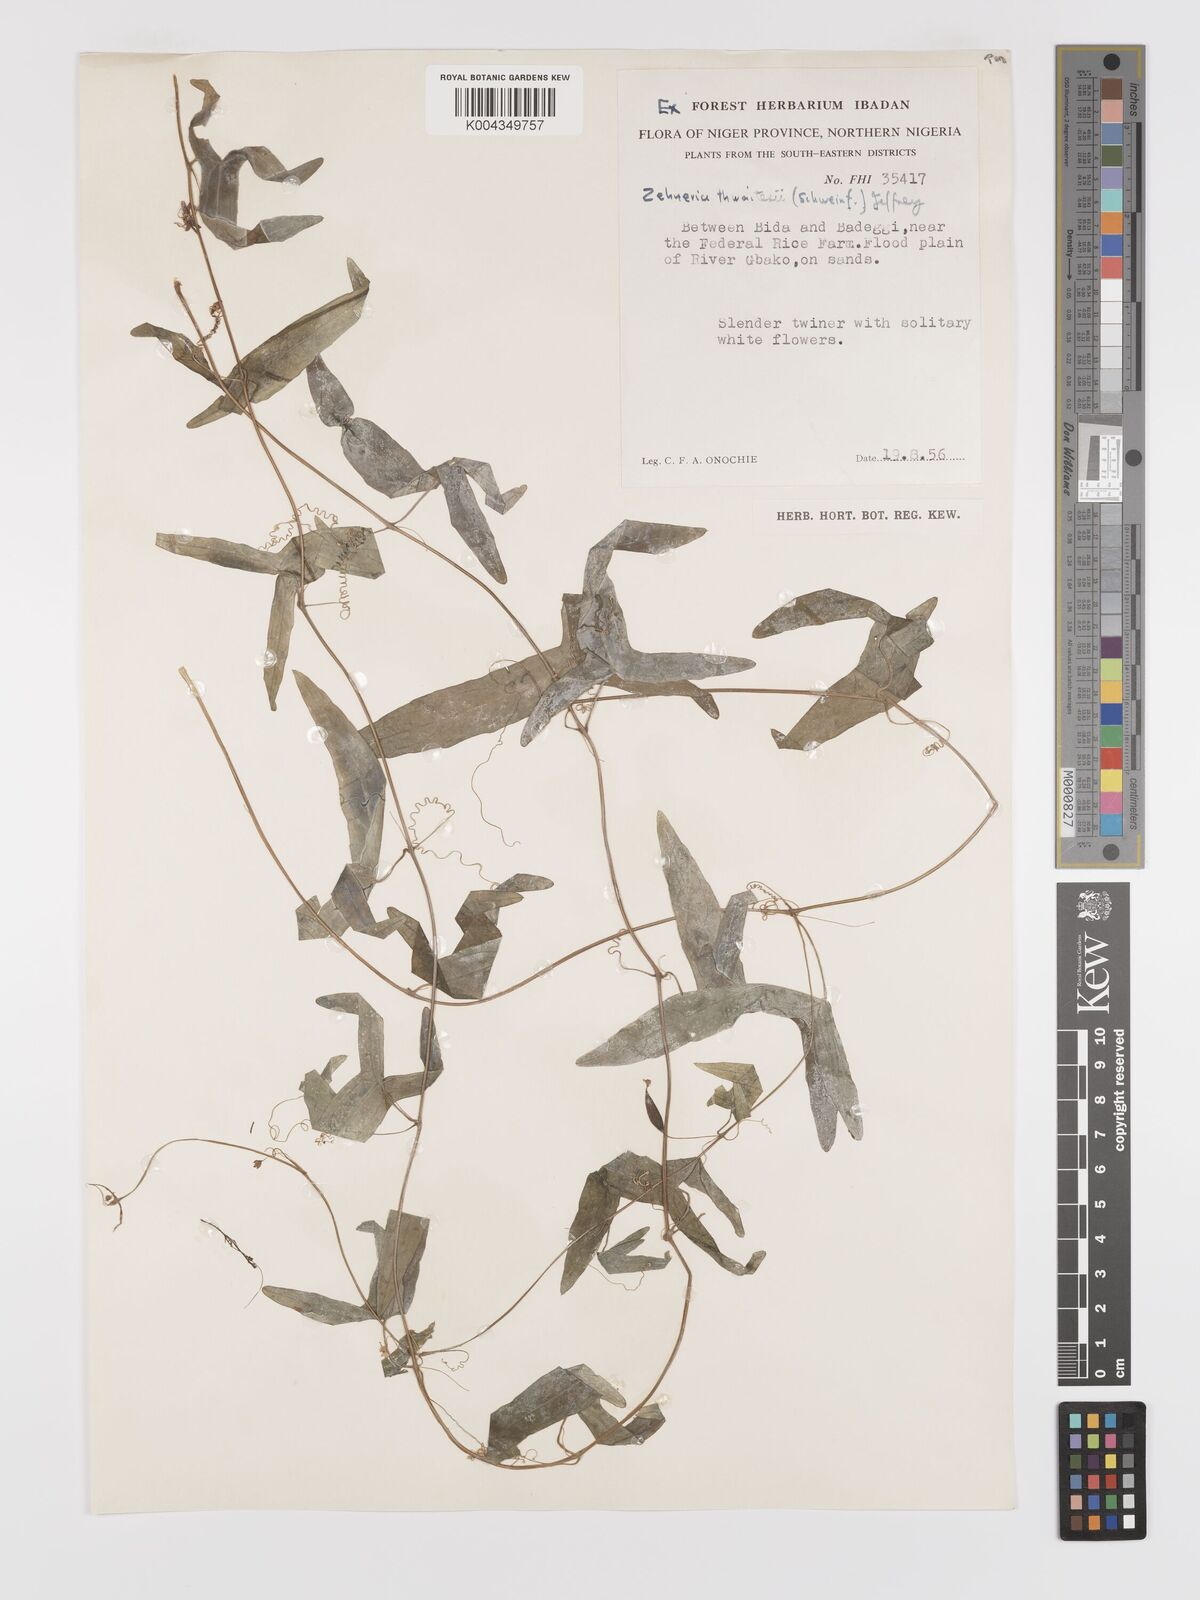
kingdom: Plantae
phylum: Tracheophyta
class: Magnoliopsida
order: Cucurbitales
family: Cucurbitaceae
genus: Zehneria
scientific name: Zehneria thwaitesii
